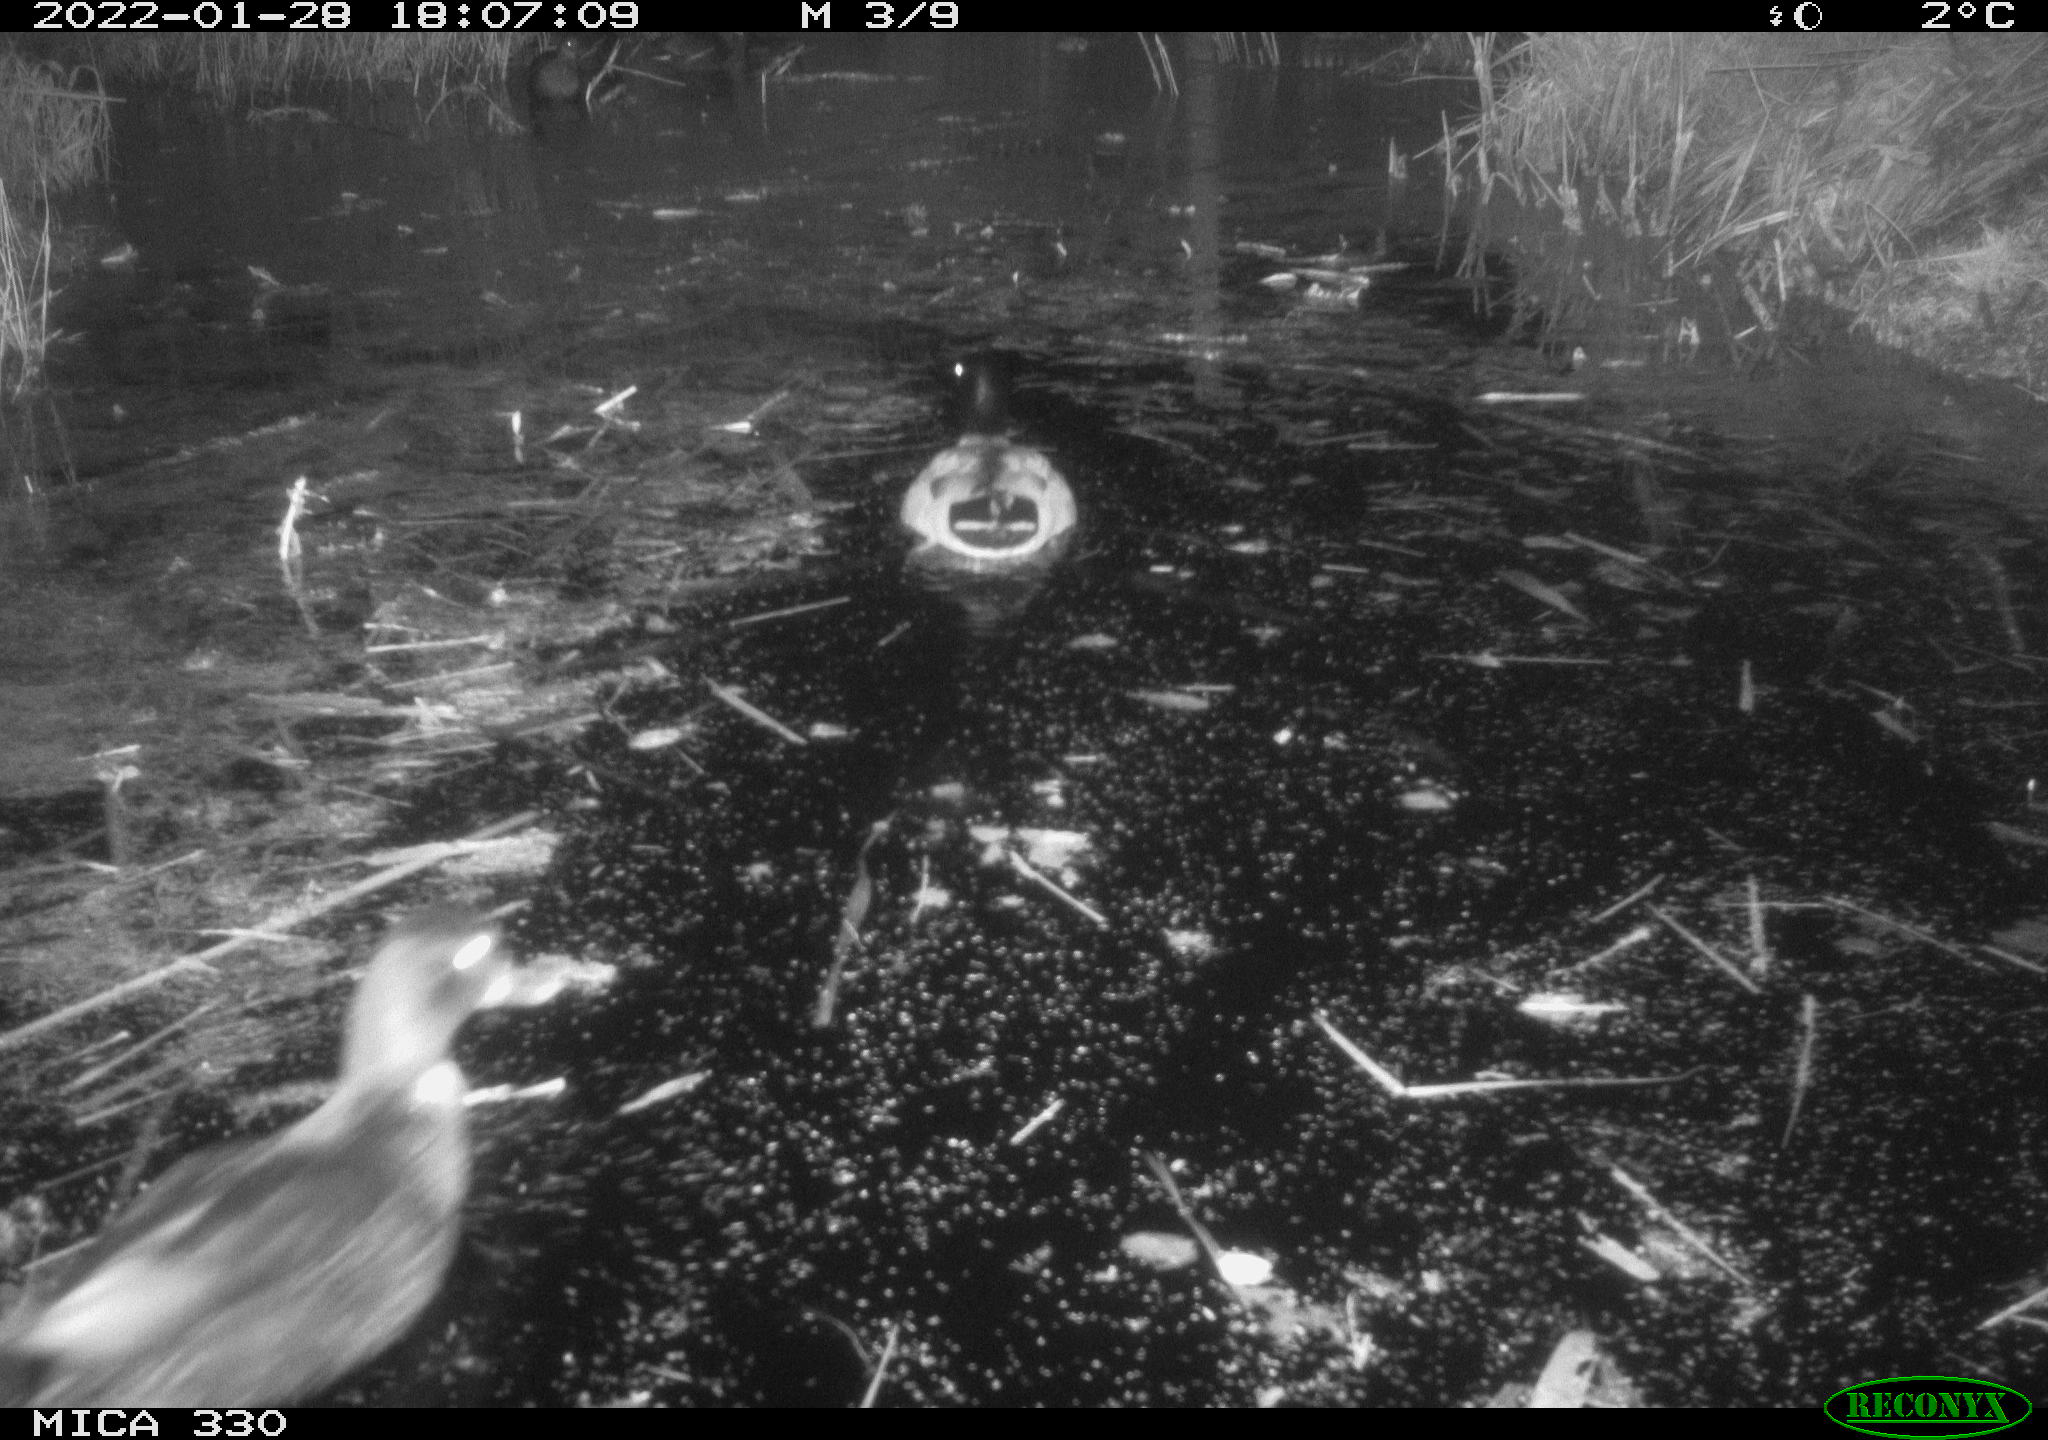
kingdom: Animalia
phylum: Chordata
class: Aves
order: Anseriformes
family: Anatidae
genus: Anas
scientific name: Anas platyrhynchos
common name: Mallard
